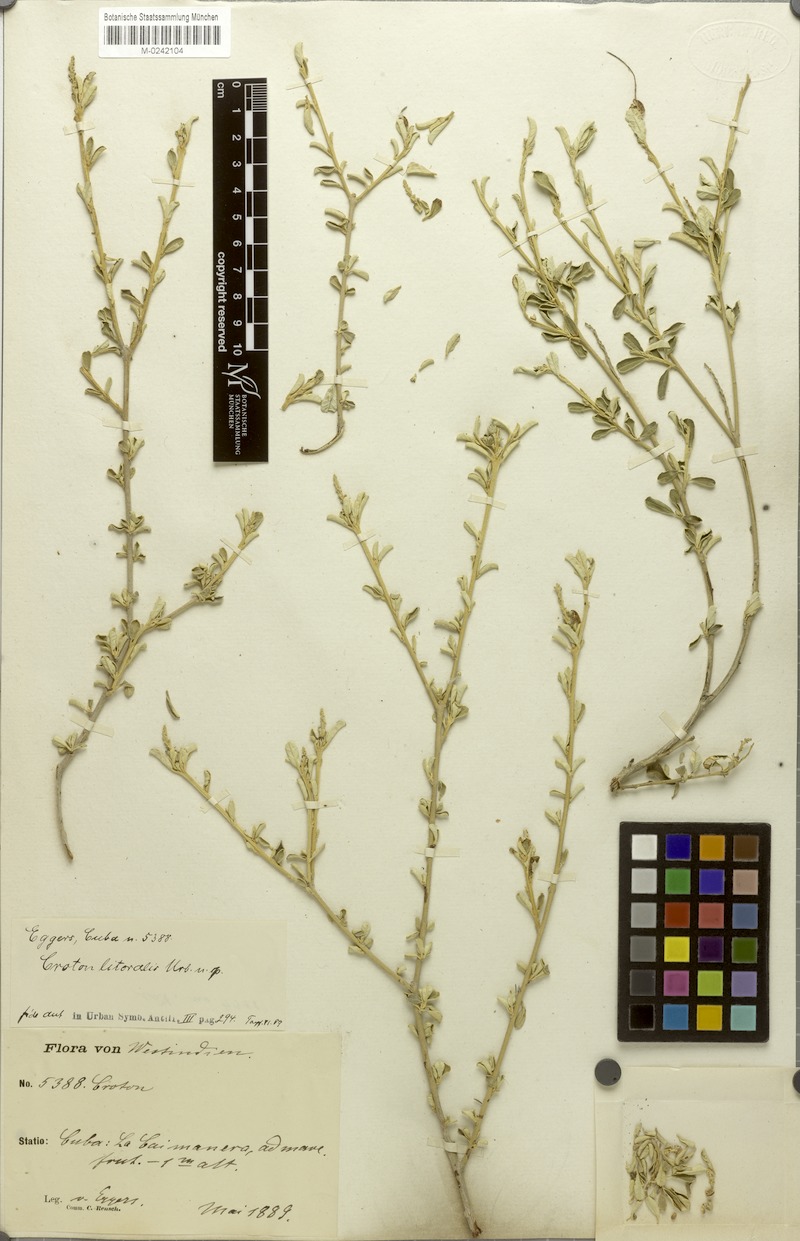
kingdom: Plantae
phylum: Tracheophyta
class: Magnoliopsida
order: Malpighiales
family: Euphorbiaceae
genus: Croton
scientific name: Croton stenophyllus
